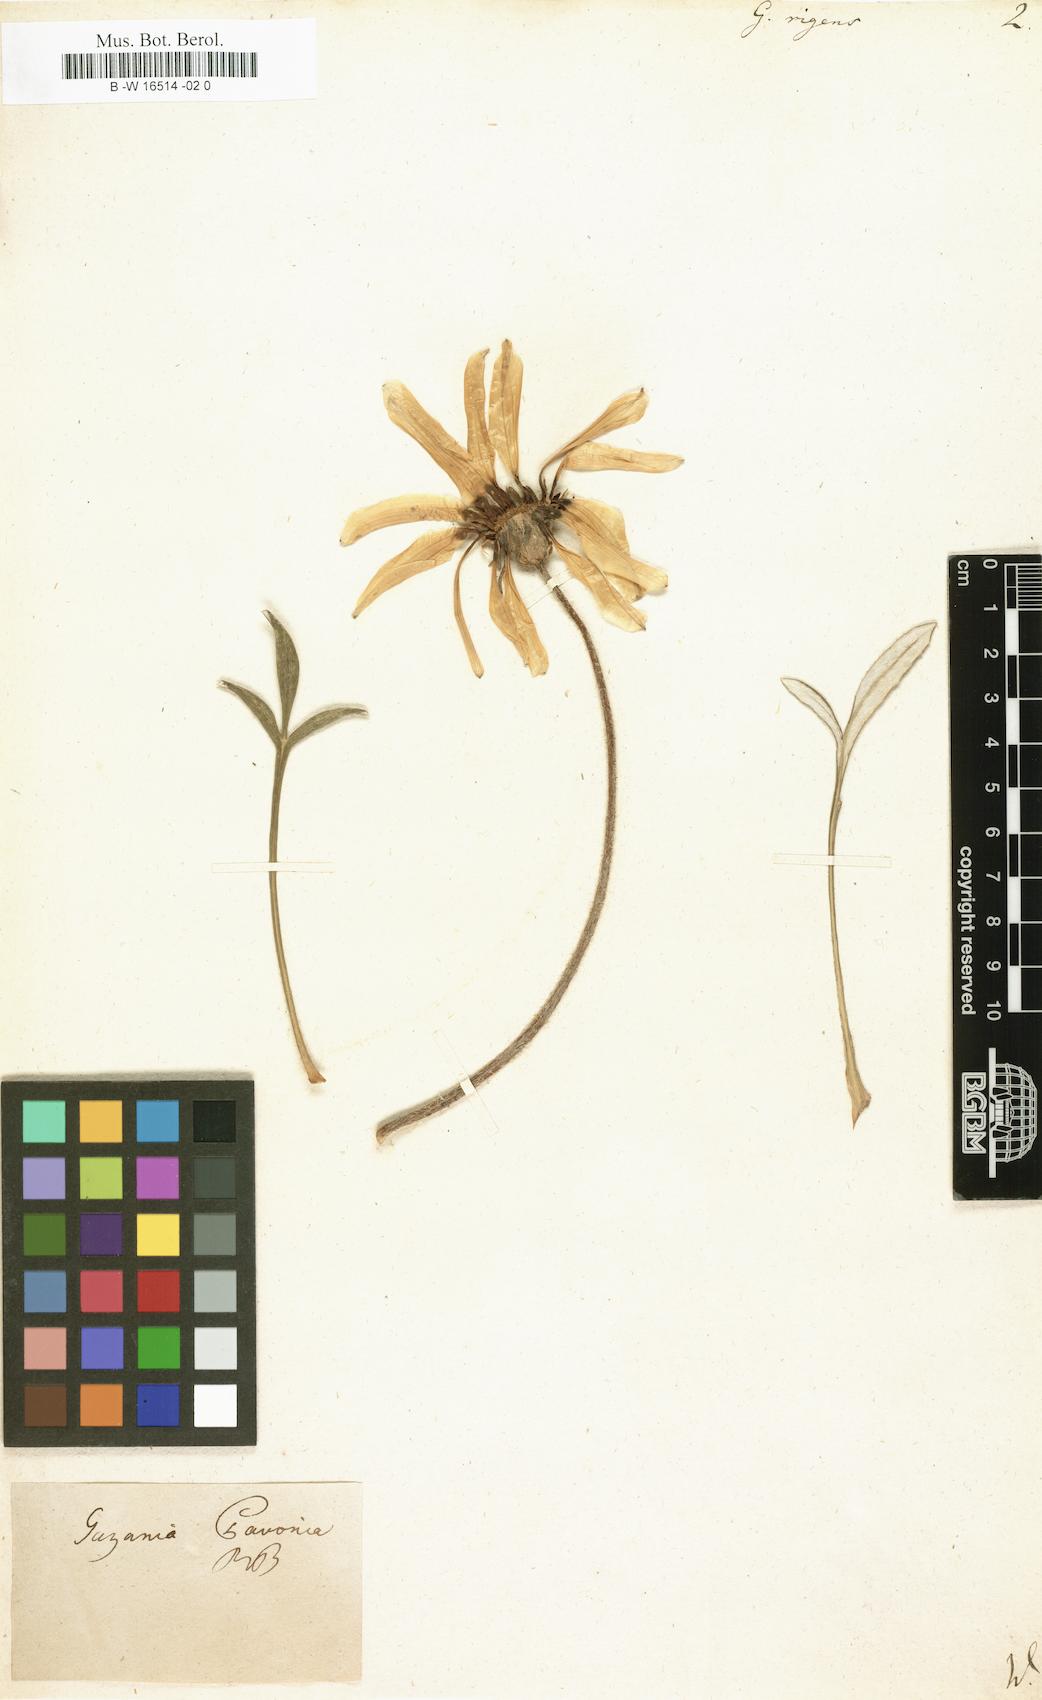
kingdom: Plantae
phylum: Tracheophyta
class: Magnoliopsida
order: Asterales
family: Asteraceae
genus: Gazania
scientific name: Gazania
